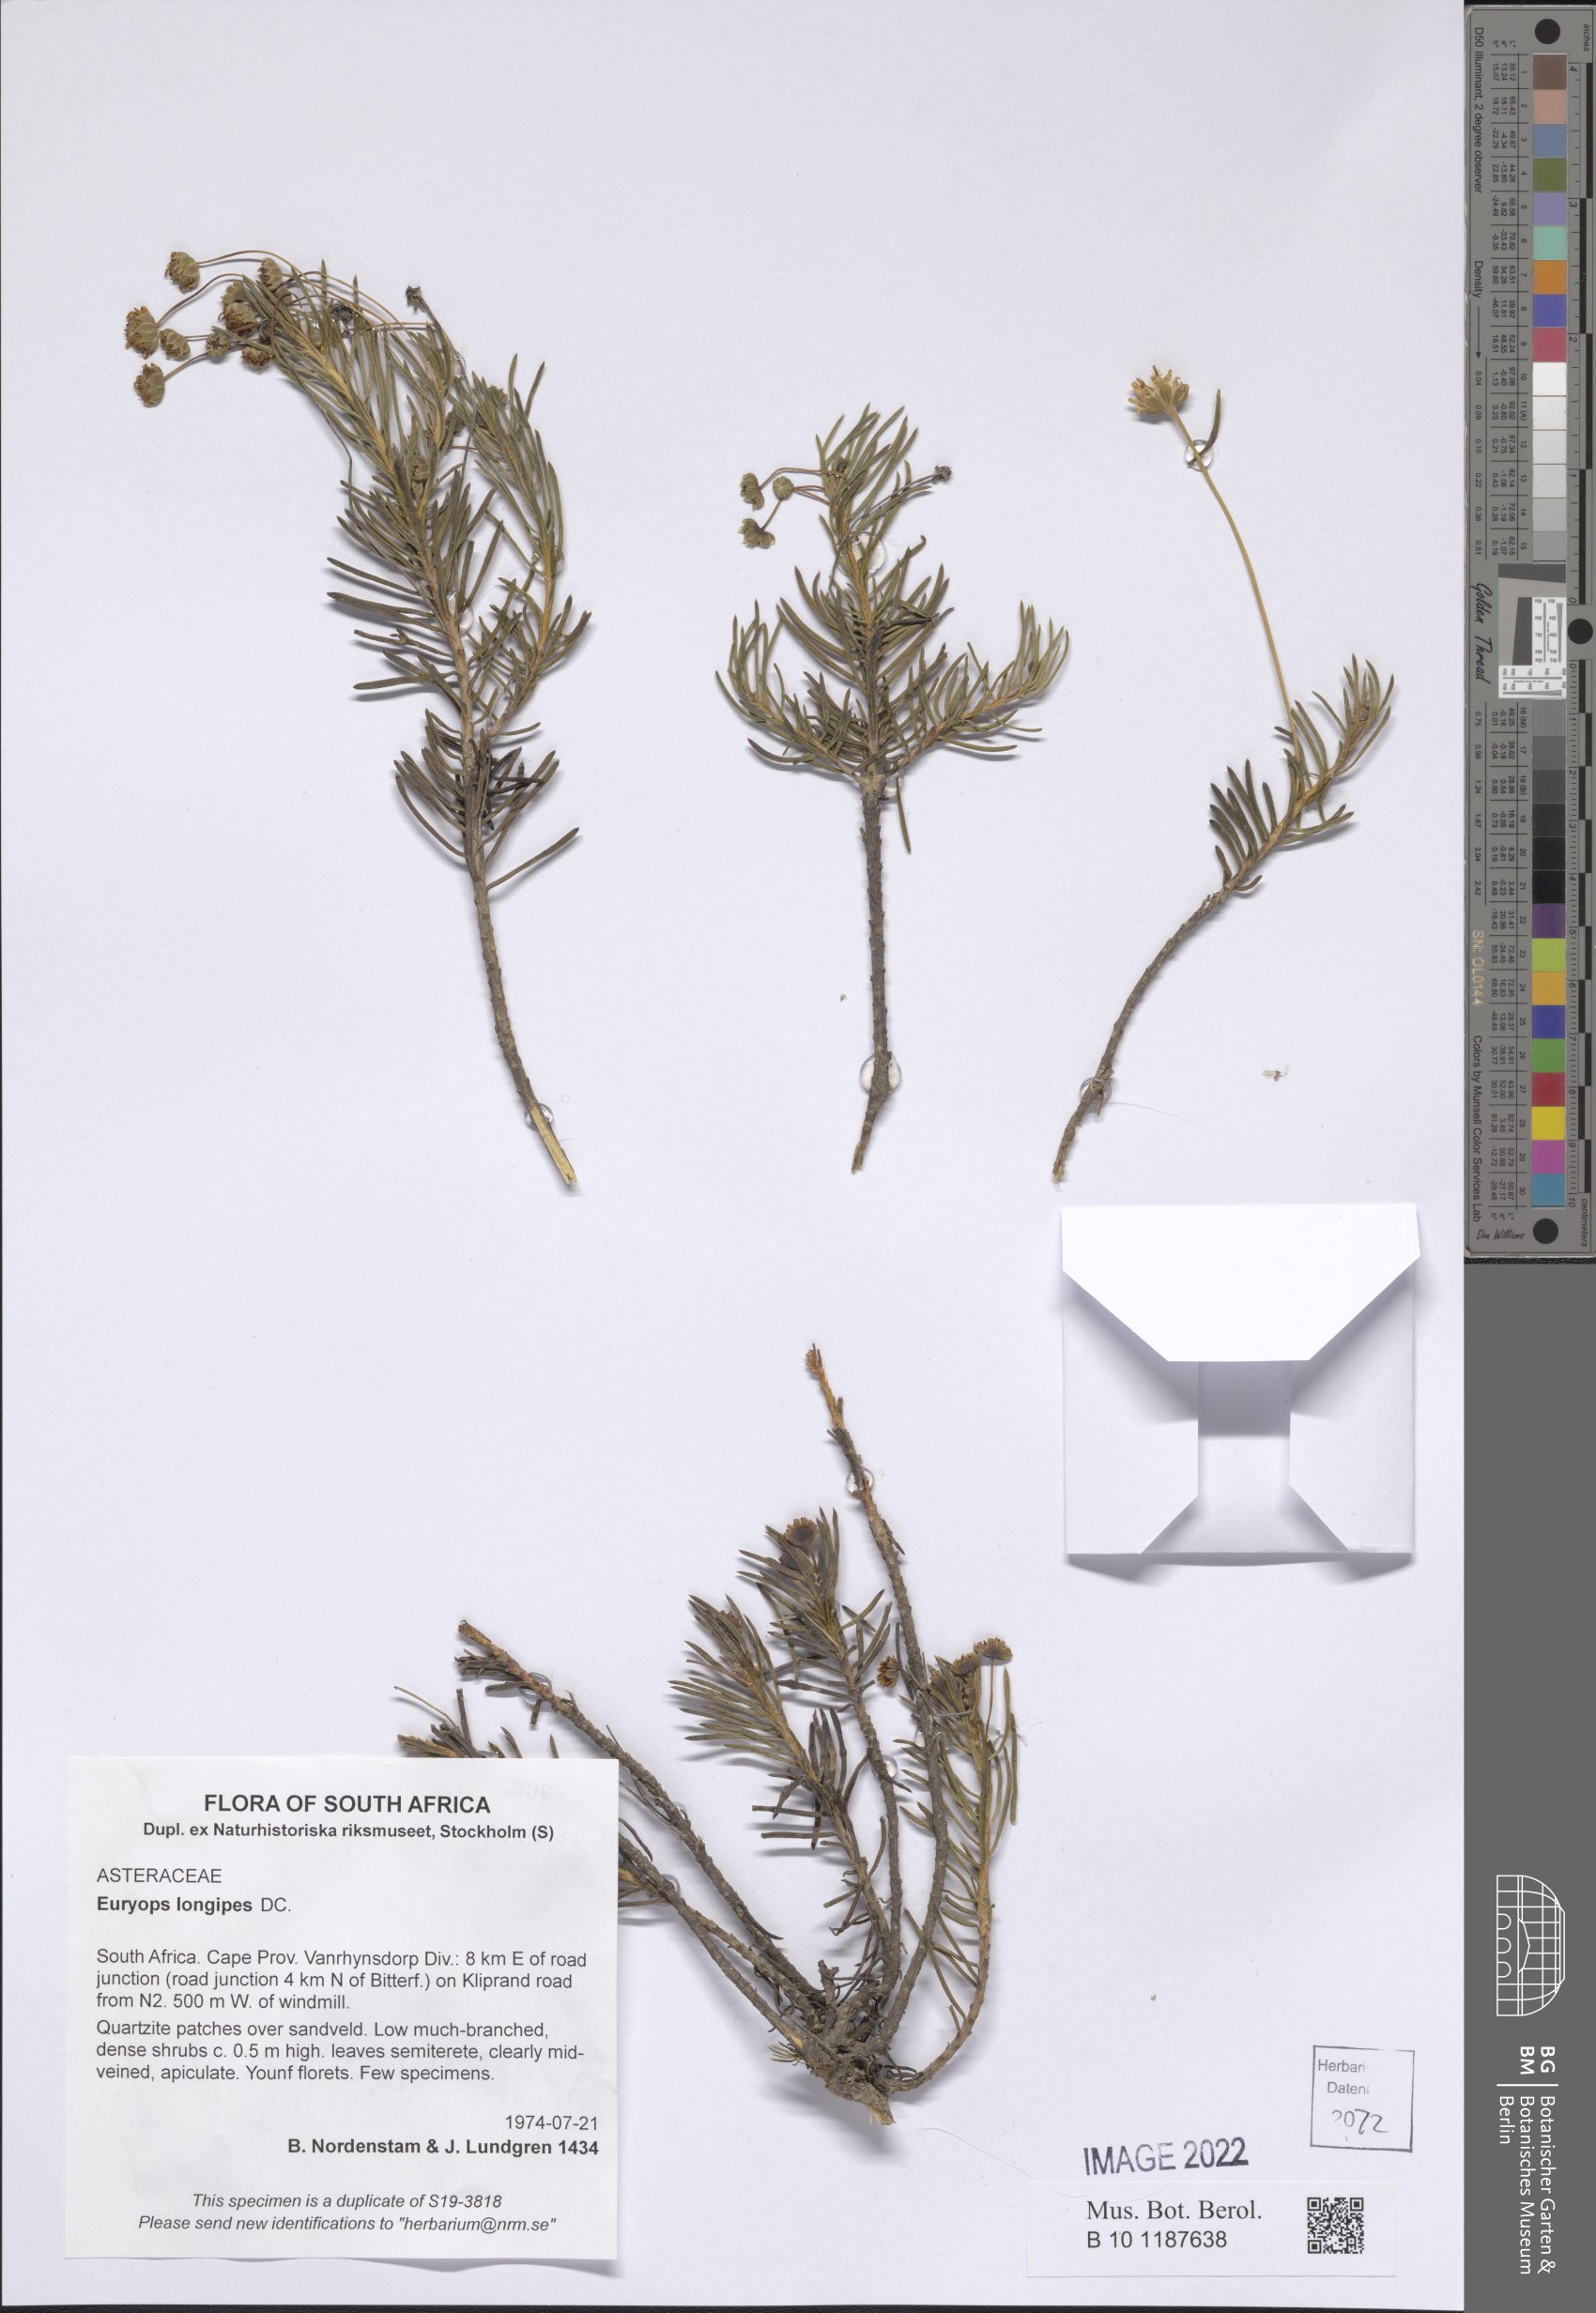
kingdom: Plantae
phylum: Tracheophyta
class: Magnoliopsida
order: Asterales
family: Asteraceae
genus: Euryops
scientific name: Euryops longipes
